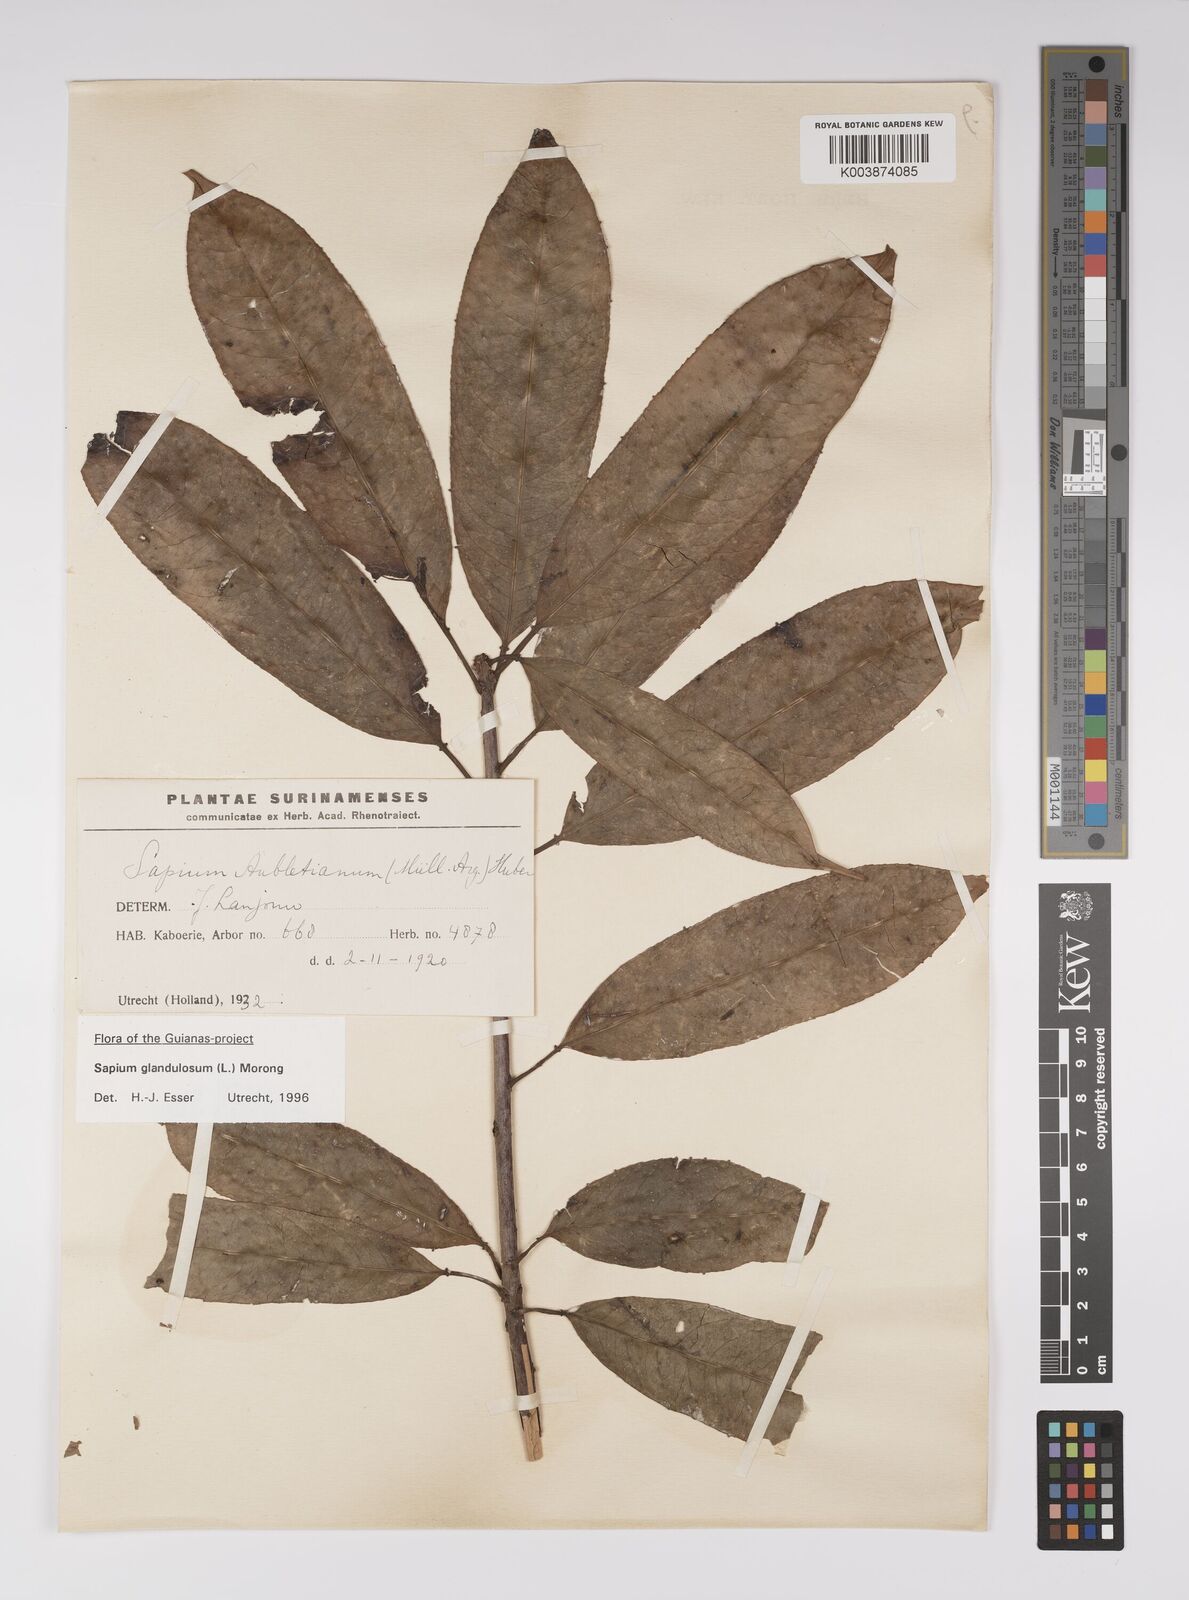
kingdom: Plantae
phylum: Tracheophyta
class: Magnoliopsida
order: Malpighiales
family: Euphorbiaceae
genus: Sapium
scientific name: Sapium glandulosum
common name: Milktree
